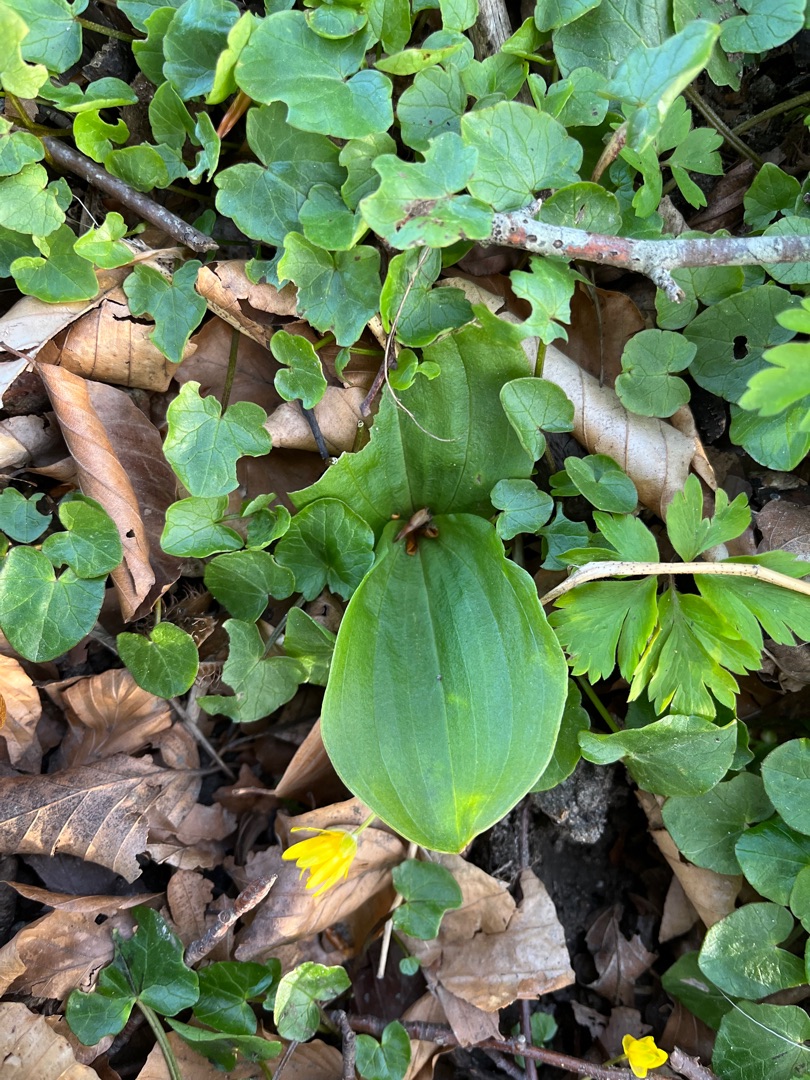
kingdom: Plantae
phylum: Tracheophyta
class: Liliopsida
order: Asparagales
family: Orchidaceae
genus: Neottia
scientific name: Neottia ovata
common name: Ægbladet fliglæbe
